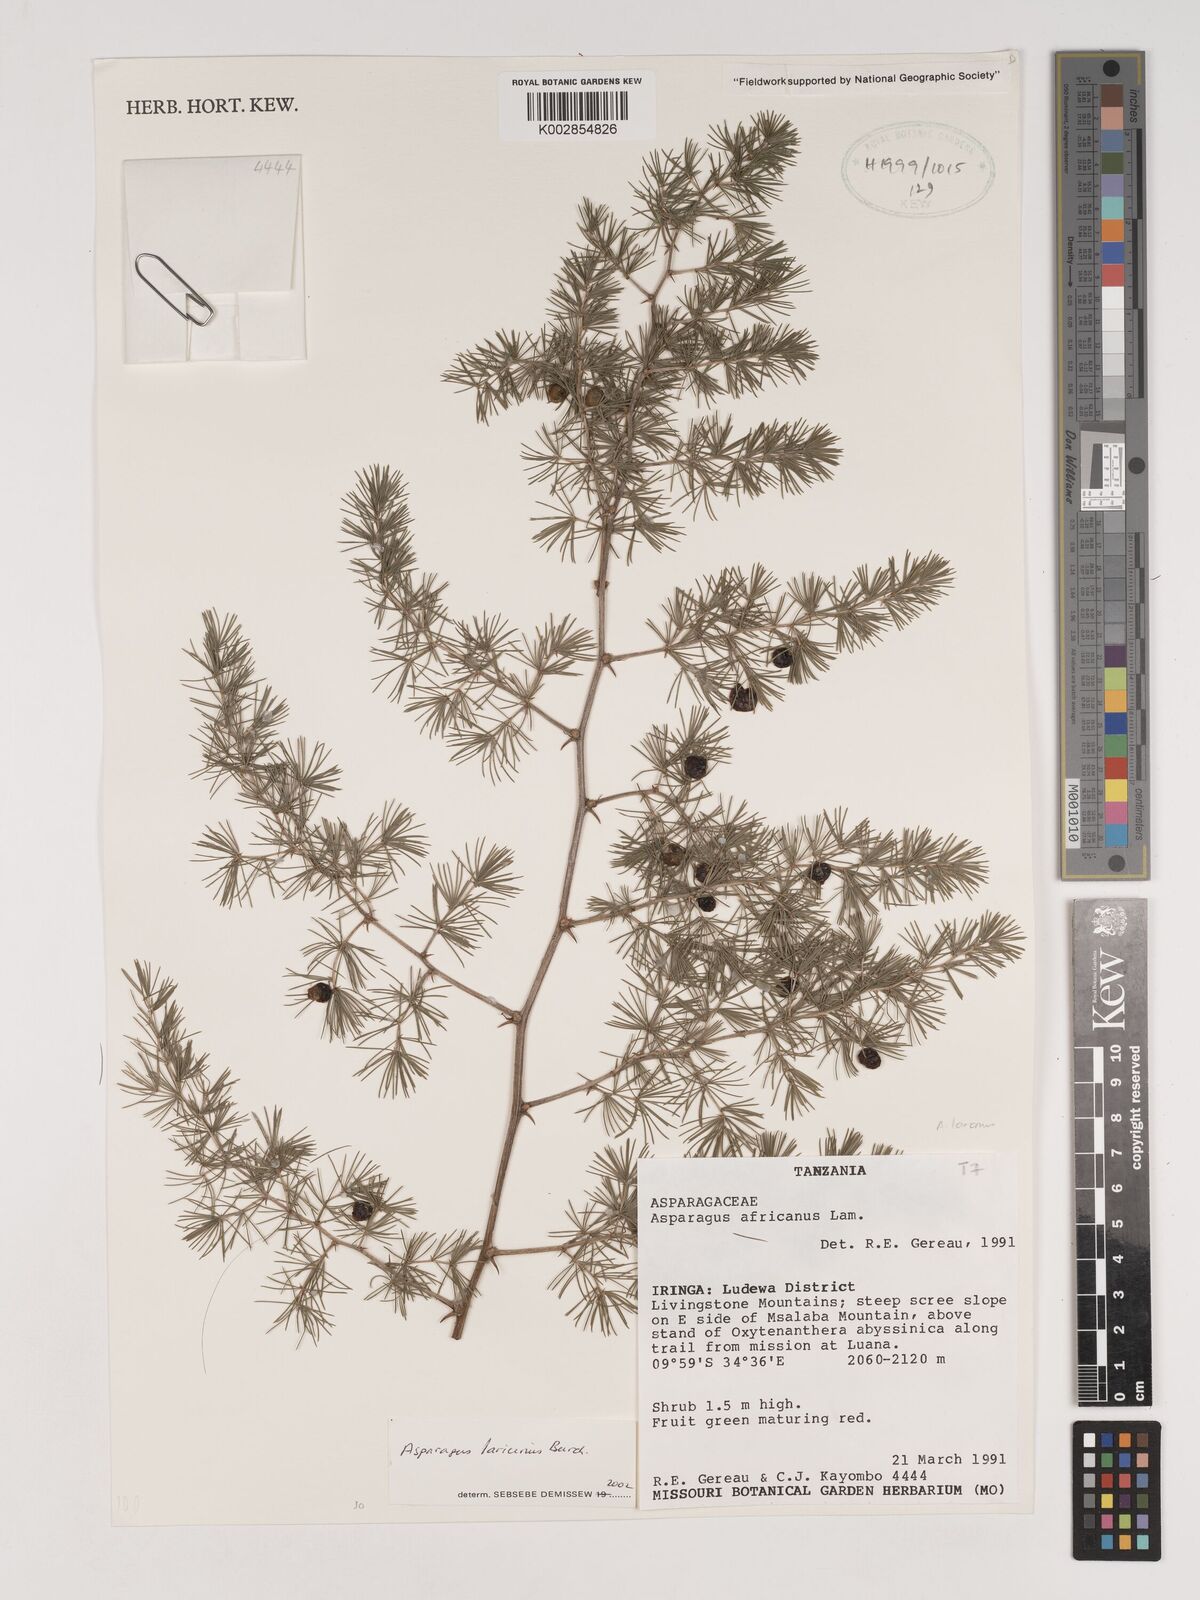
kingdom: Plantae
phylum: Tracheophyta
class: Liliopsida
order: Asparagales
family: Asparagaceae
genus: Asparagus
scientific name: Asparagus laricinus
